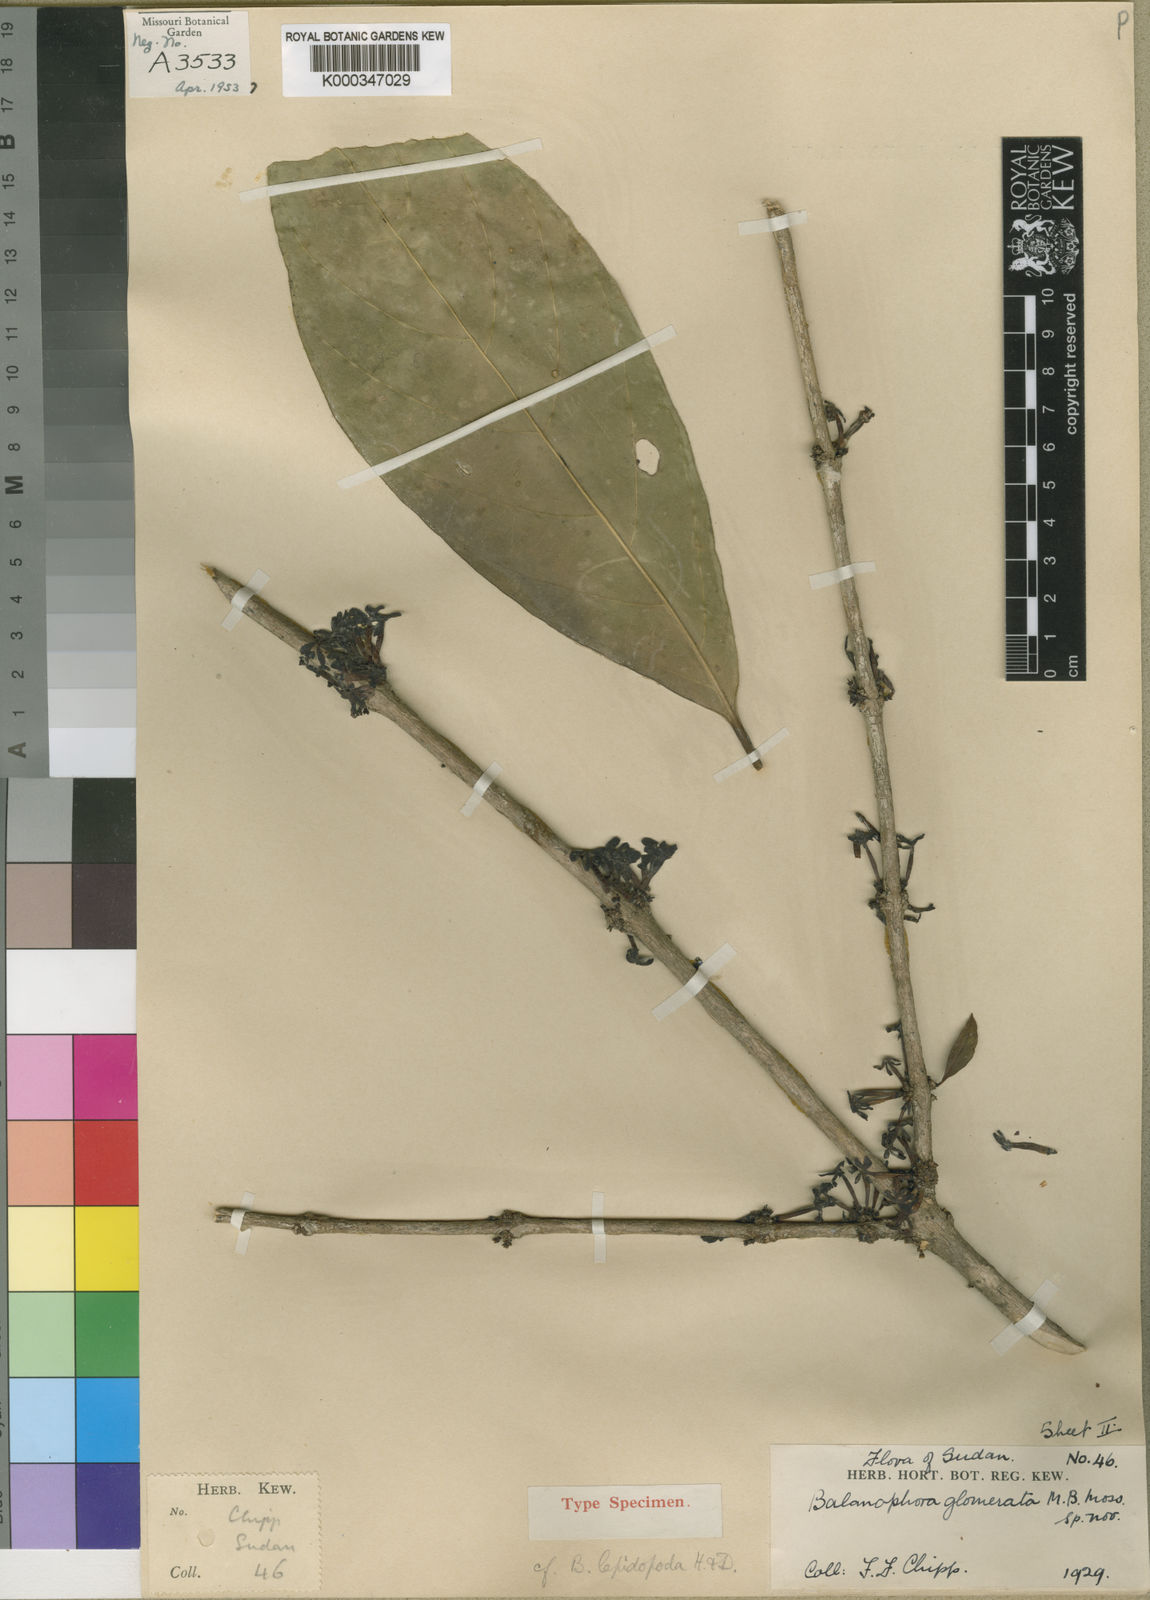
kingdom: Plantae
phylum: Tracheophyta
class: Magnoliopsida
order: Gentianales
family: Rubiaceae
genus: Belonophora
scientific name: Belonophora coffeoides
